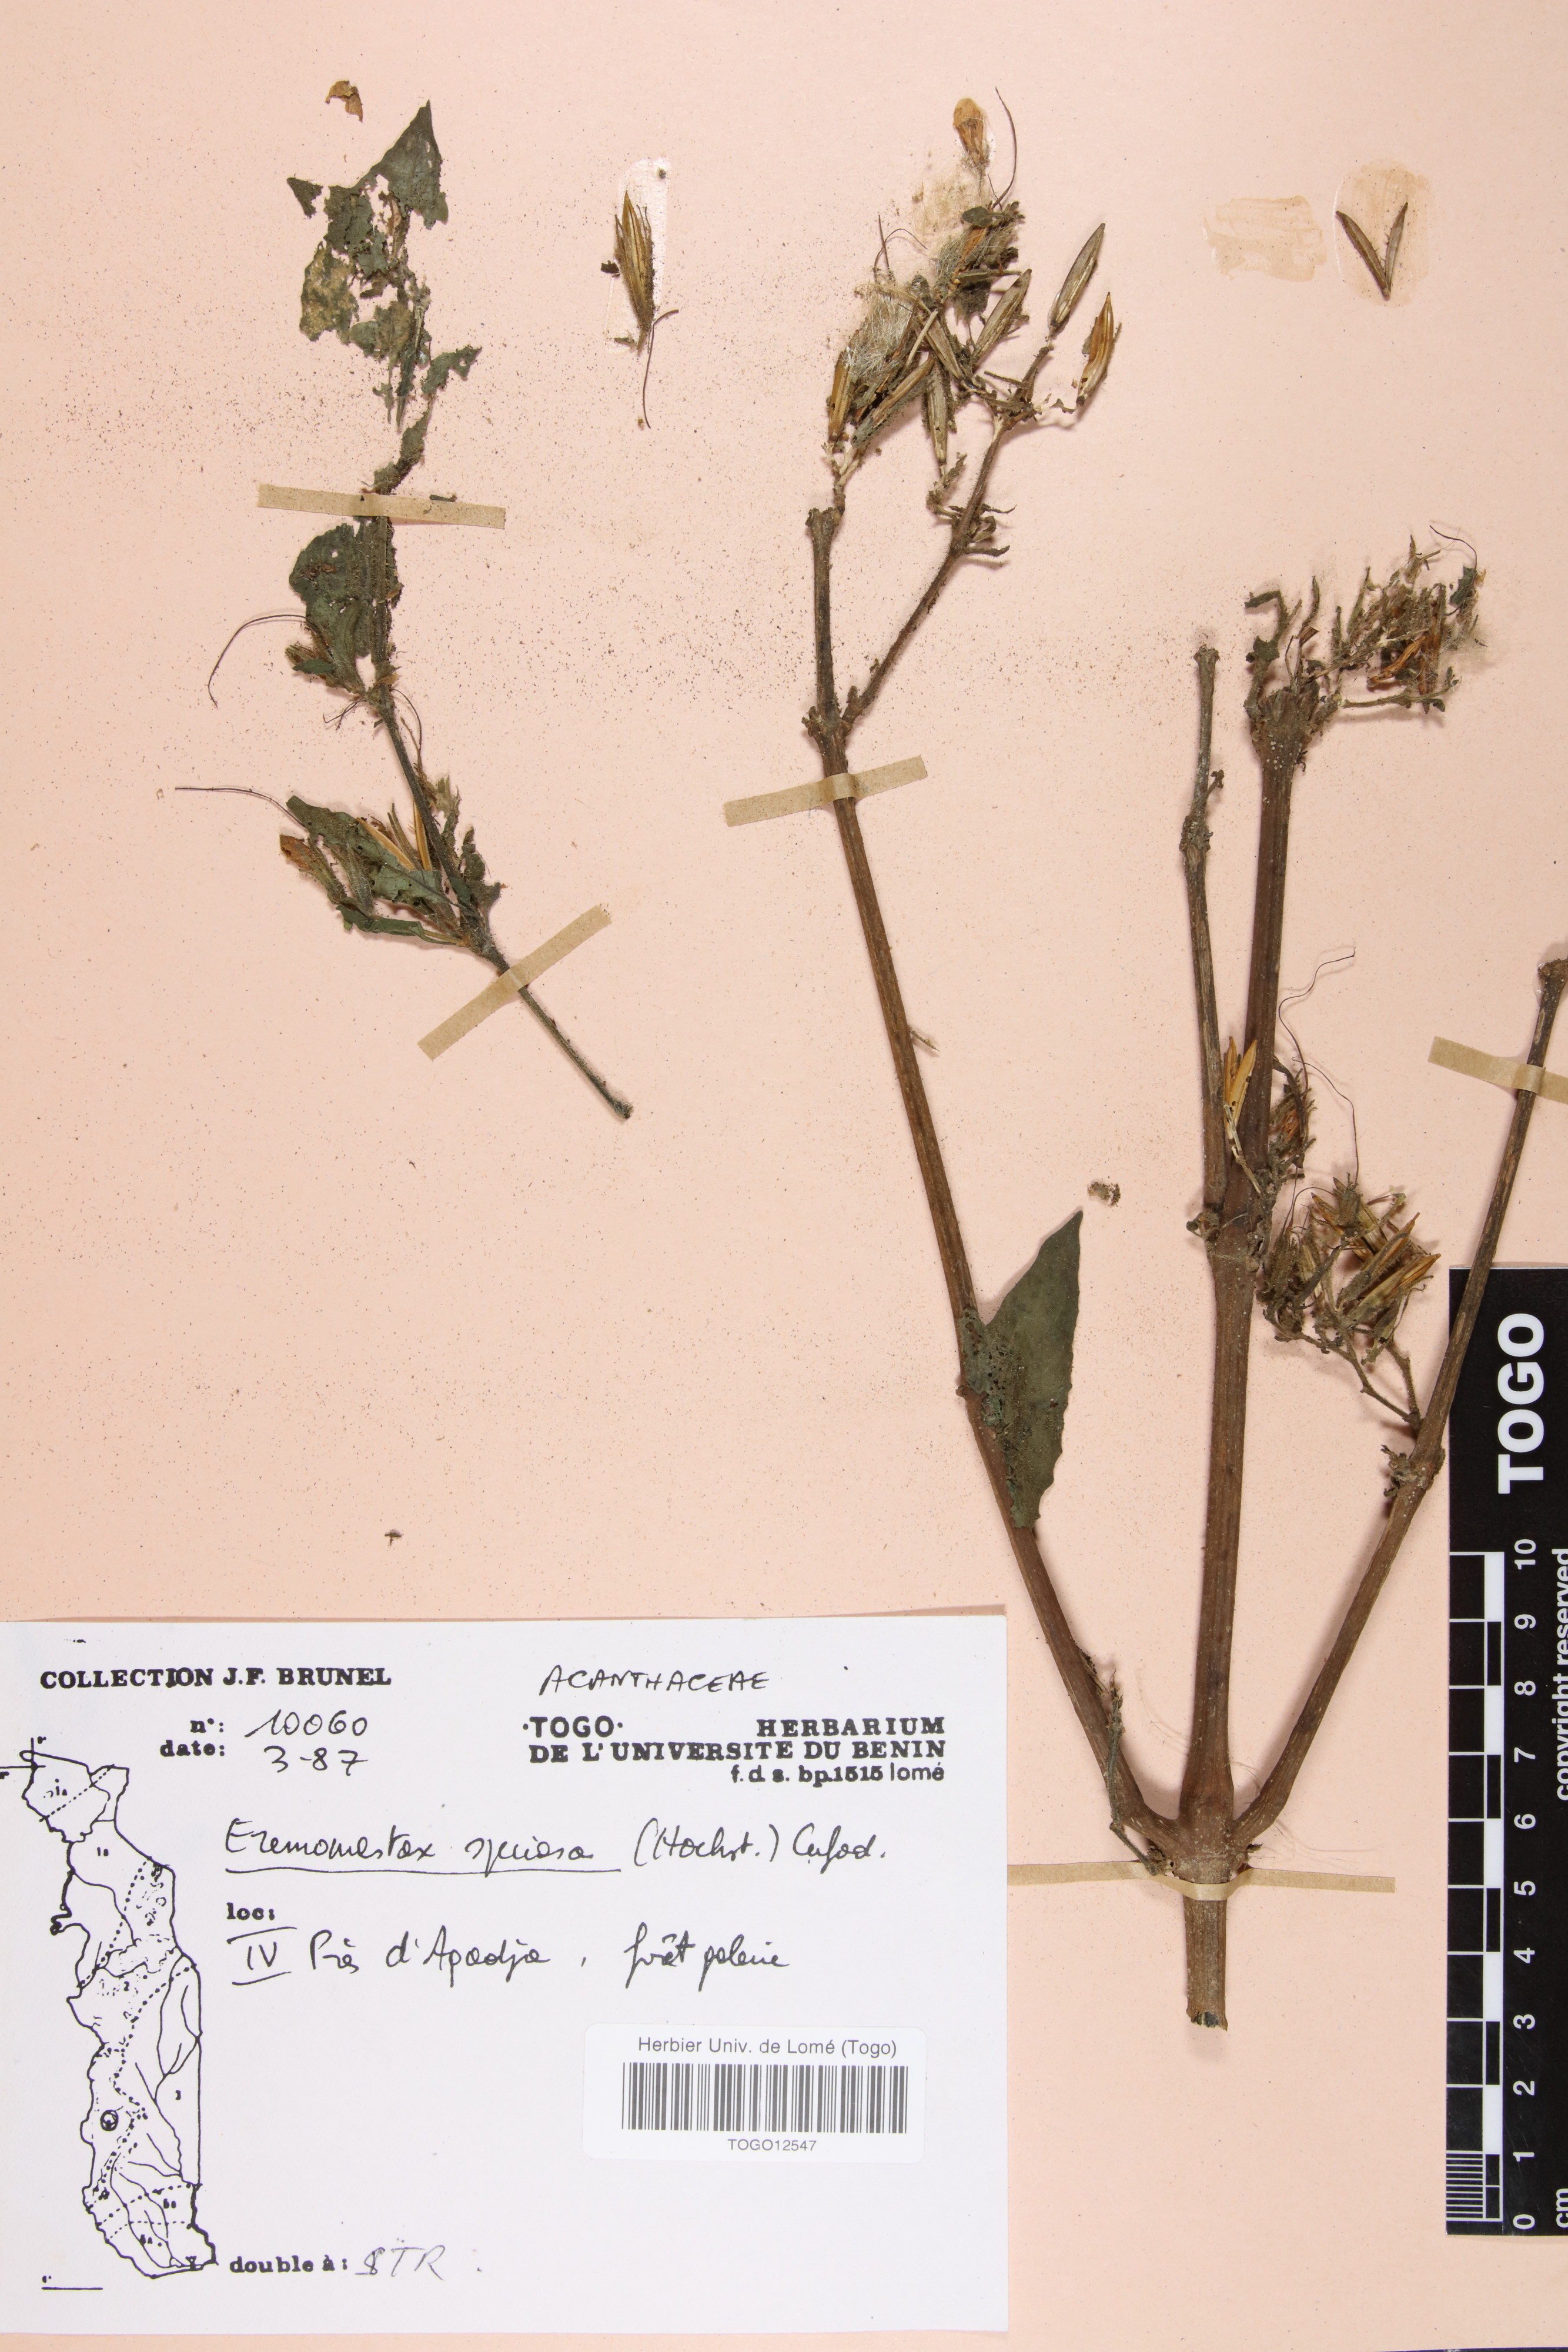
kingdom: Plantae
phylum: Tracheophyta
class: Magnoliopsida
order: Lamiales
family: Acanthaceae
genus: Eremomastax
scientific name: Eremomastax speciosa
